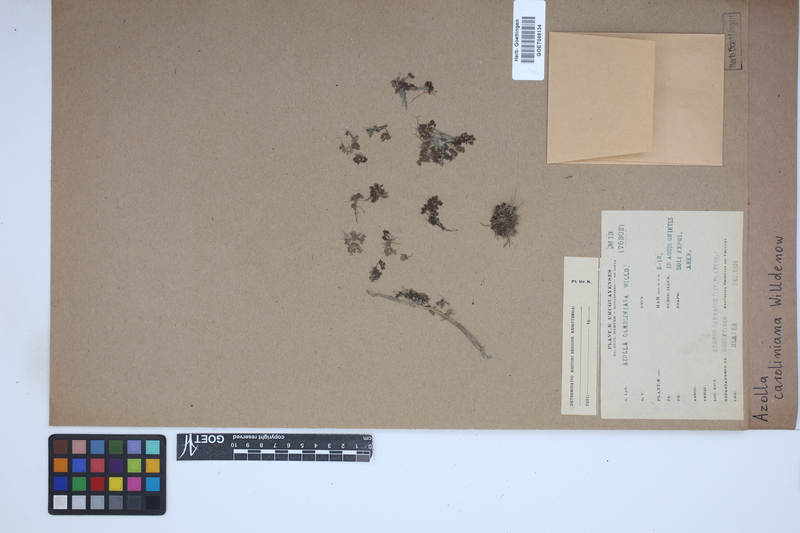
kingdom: Plantae
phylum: Tracheophyta
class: Polypodiopsida
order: Salviniales
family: Salviniaceae
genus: Azolla
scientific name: Azolla caroliniana
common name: Carolina mosquitofern
